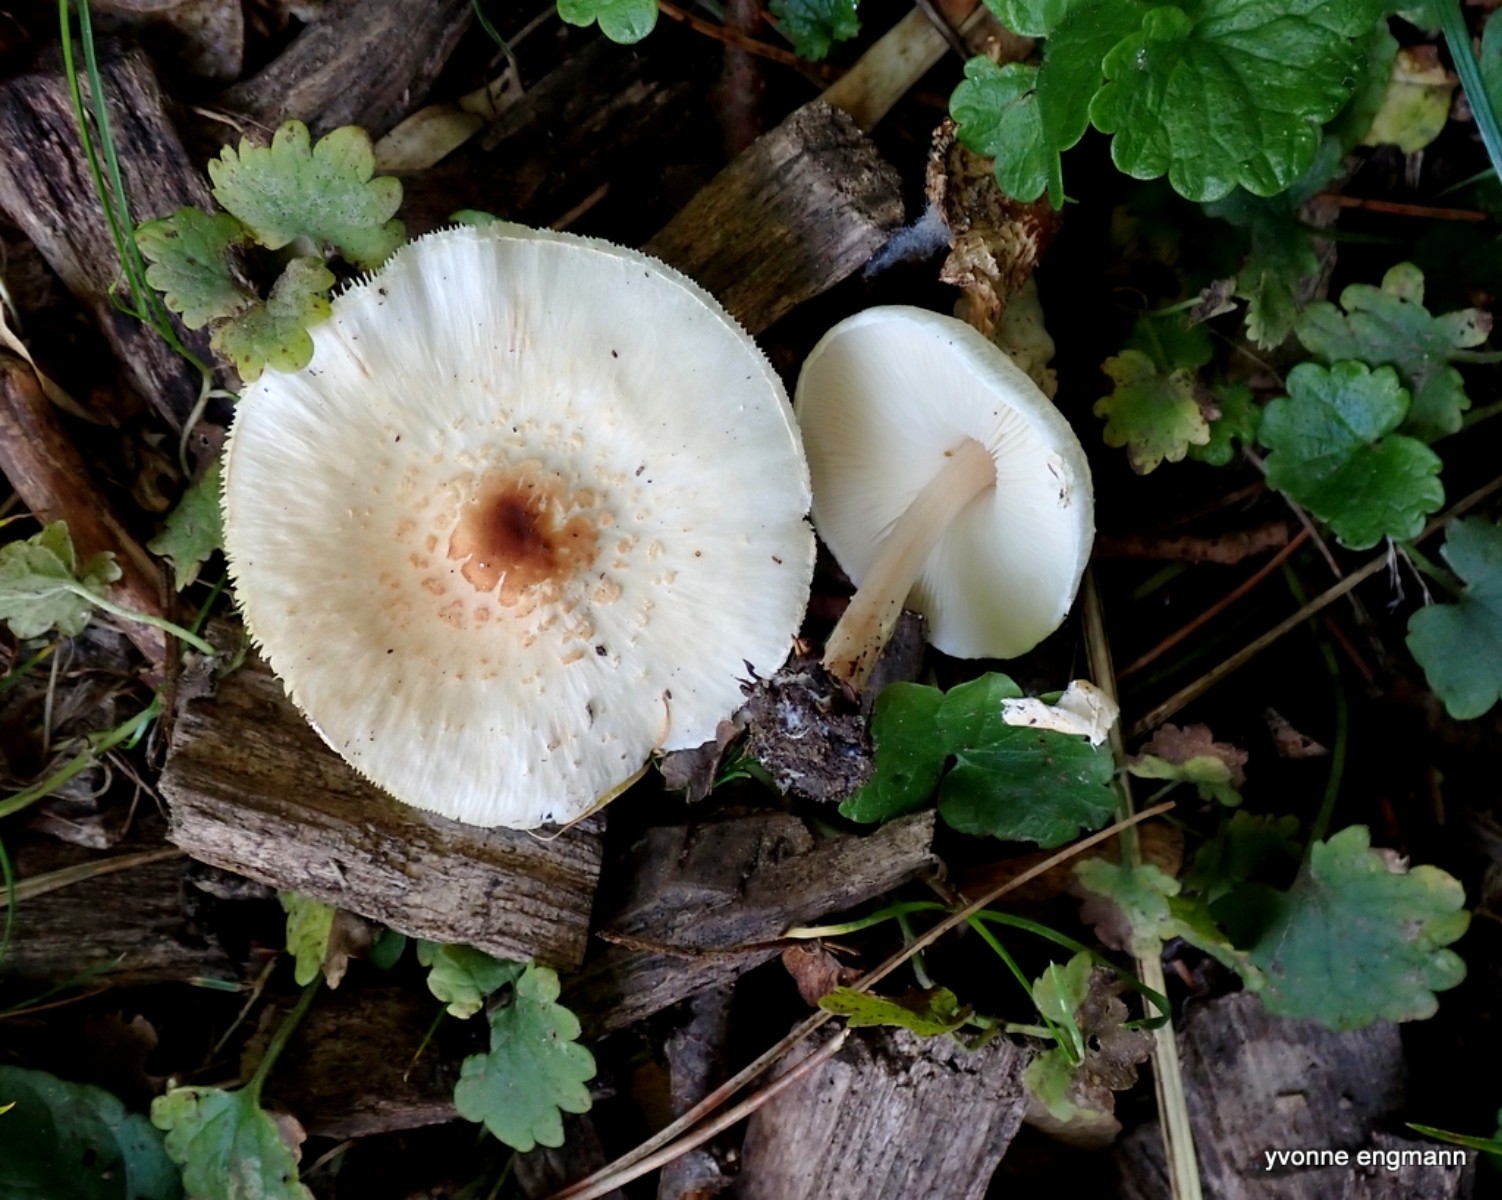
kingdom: Fungi
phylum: Basidiomycota
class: Agaricomycetes
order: Agaricales
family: Agaricaceae
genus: Lepiota
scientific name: Lepiota cristata
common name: stinkende parasolhat
